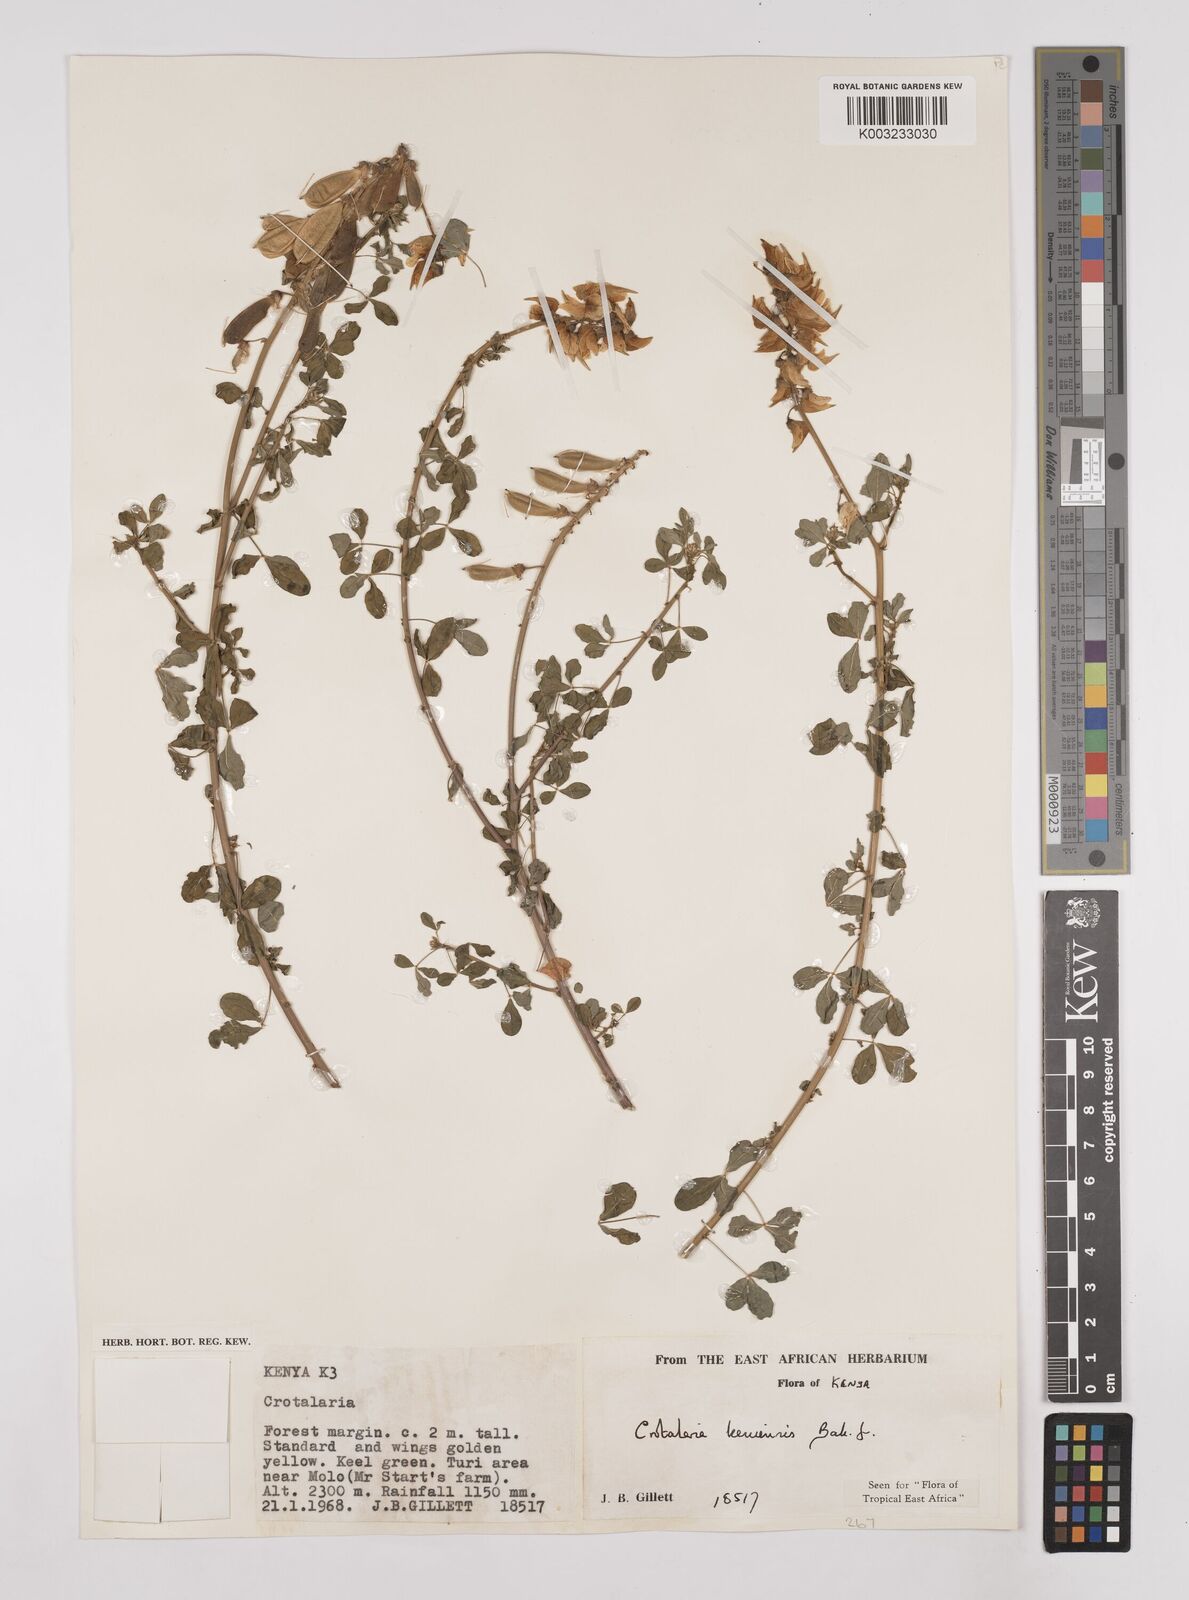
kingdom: Plantae
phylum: Tracheophyta
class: Magnoliopsida
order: Fabales
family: Fabaceae
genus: Crotalaria
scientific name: Crotalaria keniensis
